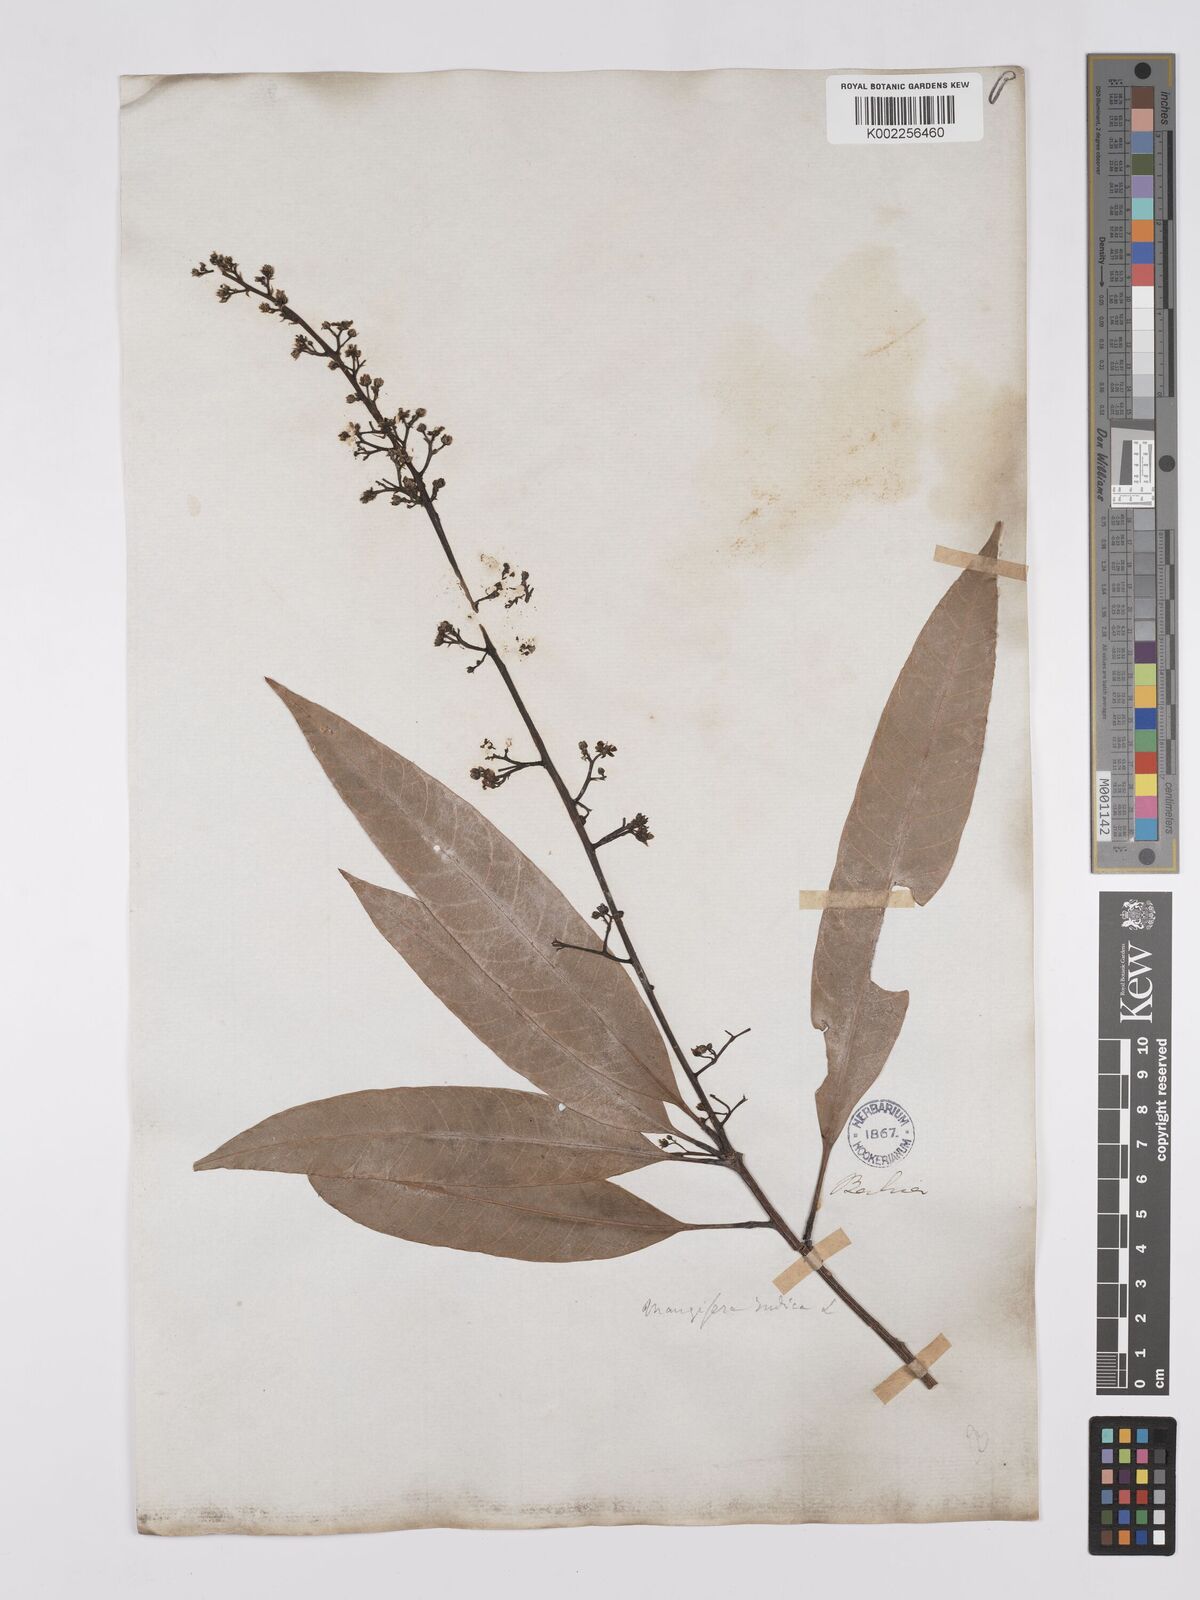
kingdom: Plantae
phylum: Tracheophyta
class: Magnoliopsida
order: Sapindales
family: Anacardiaceae
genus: Mangifera
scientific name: Mangifera indica
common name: Mango
